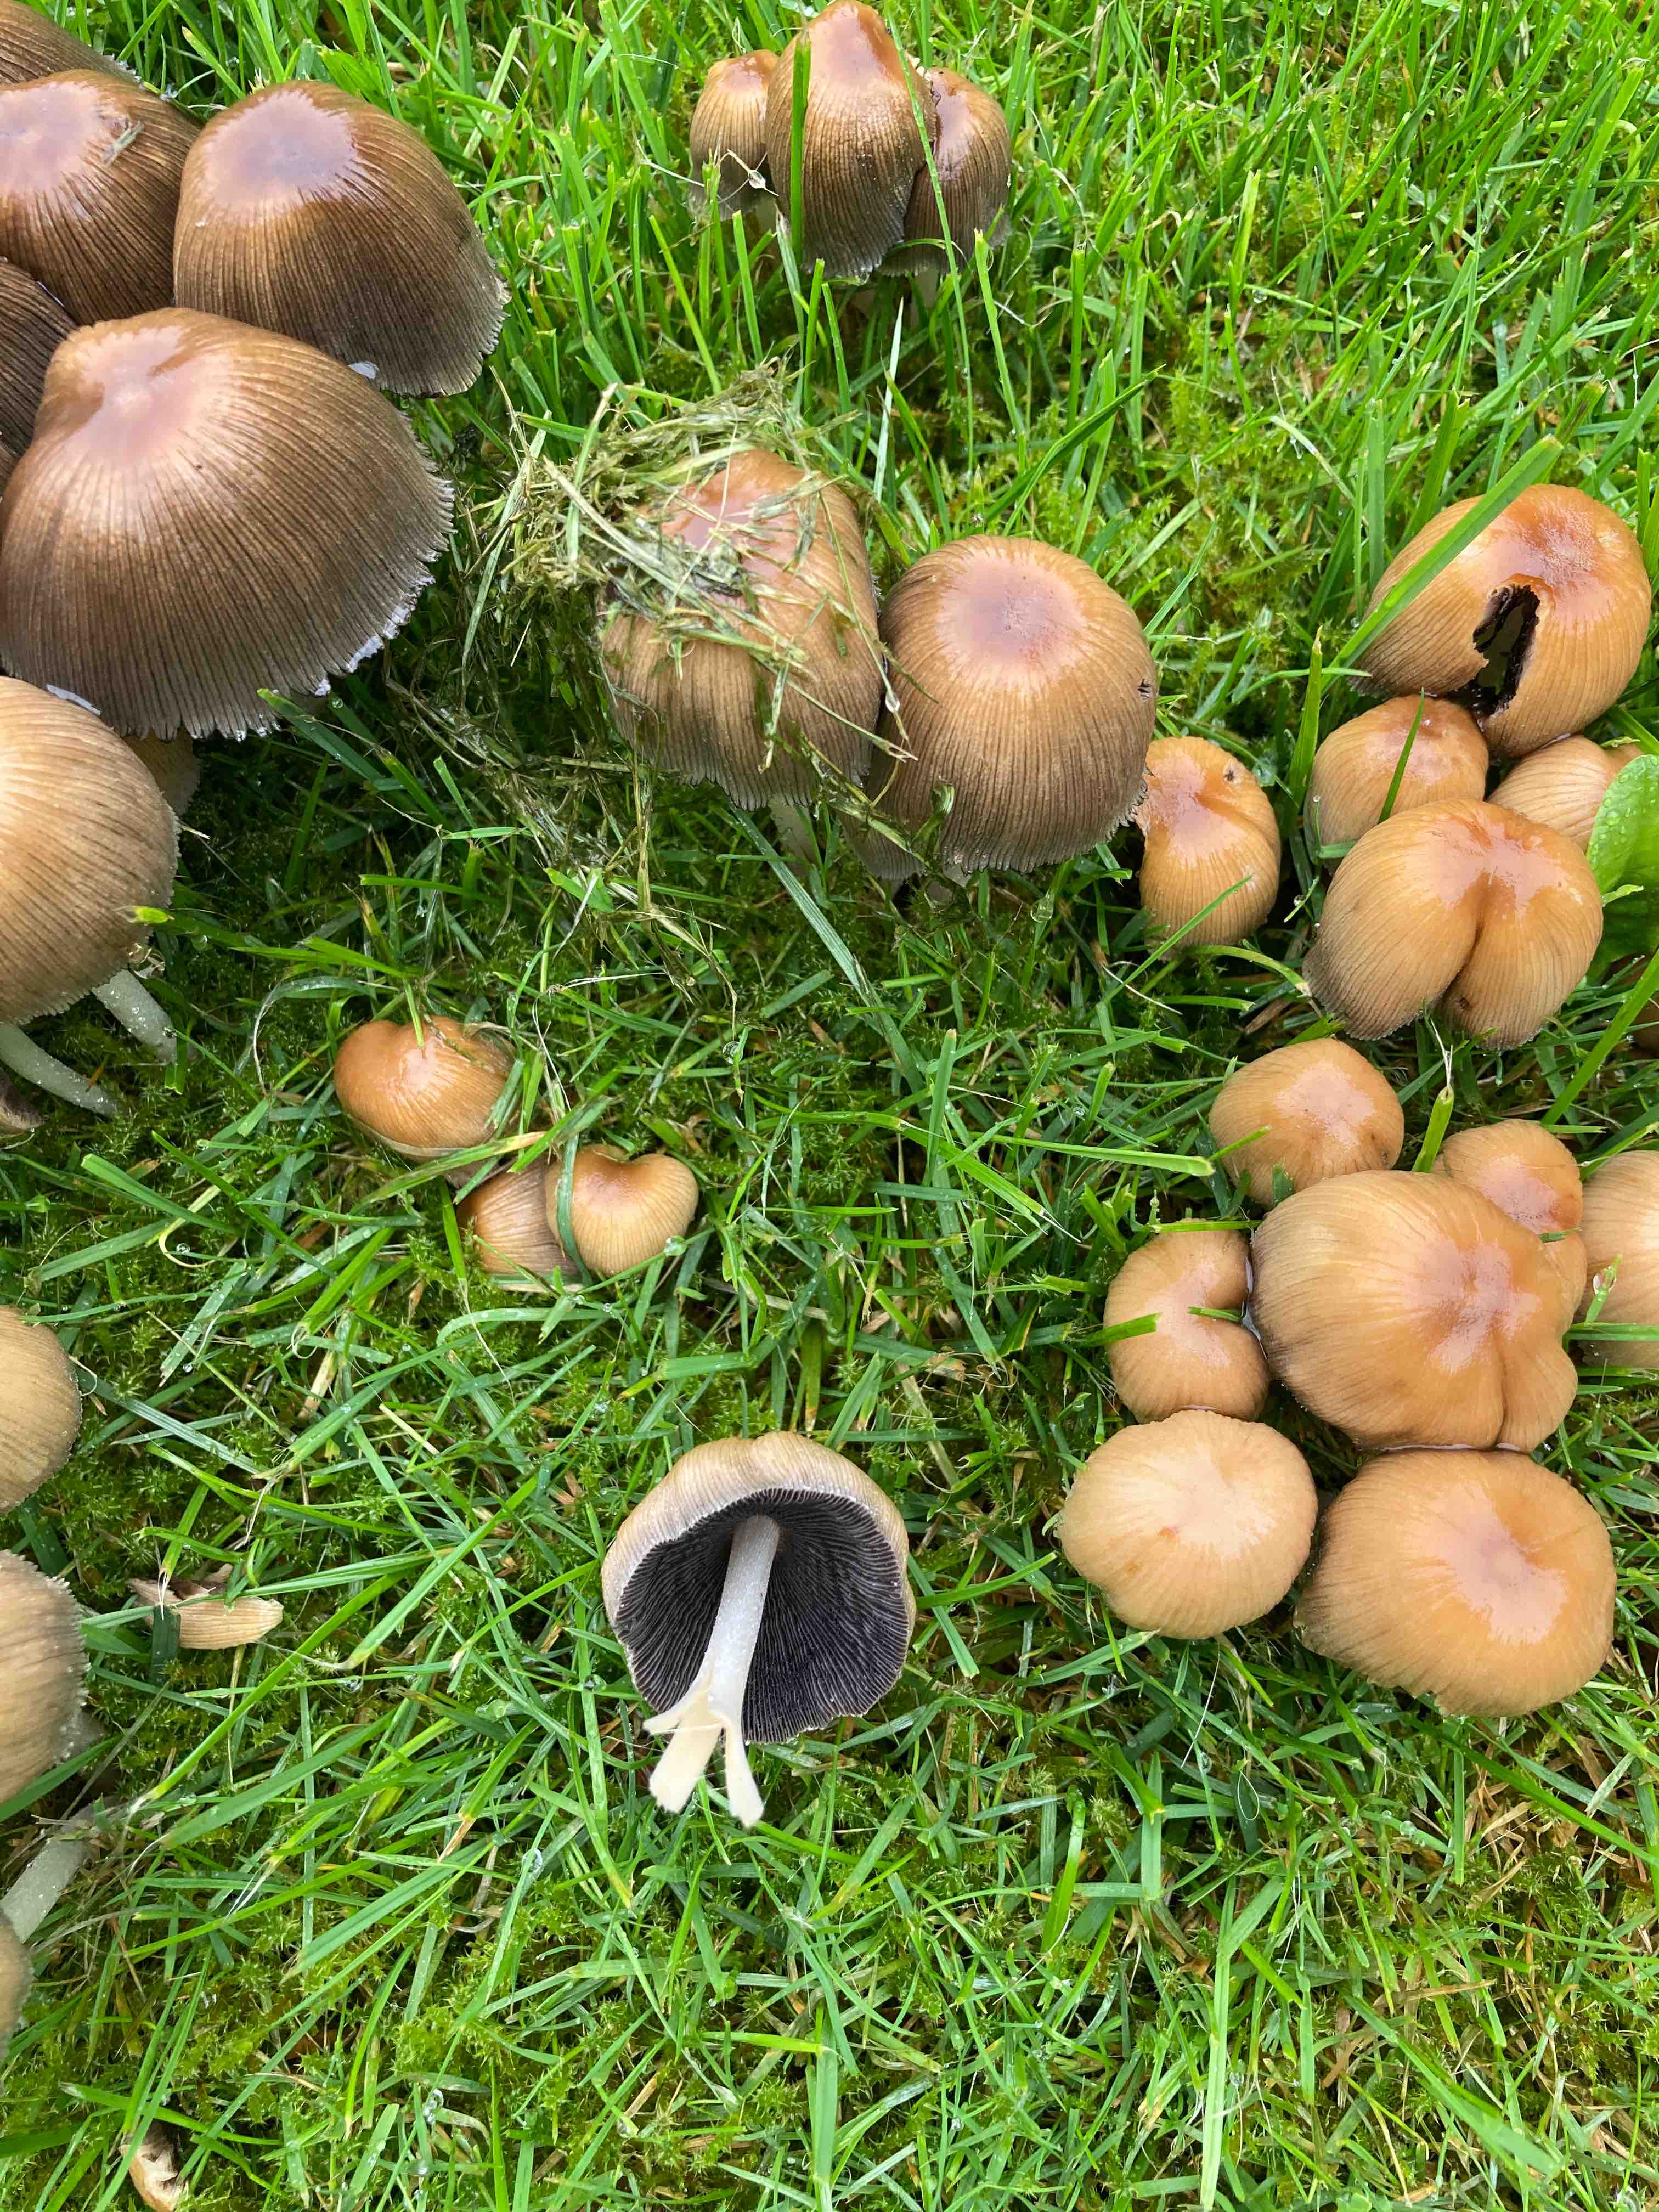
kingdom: Fungi
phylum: Basidiomycota
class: Agaricomycetes
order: Agaricales
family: Psathyrellaceae
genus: Coprinellus
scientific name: Coprinellus
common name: blækhat
